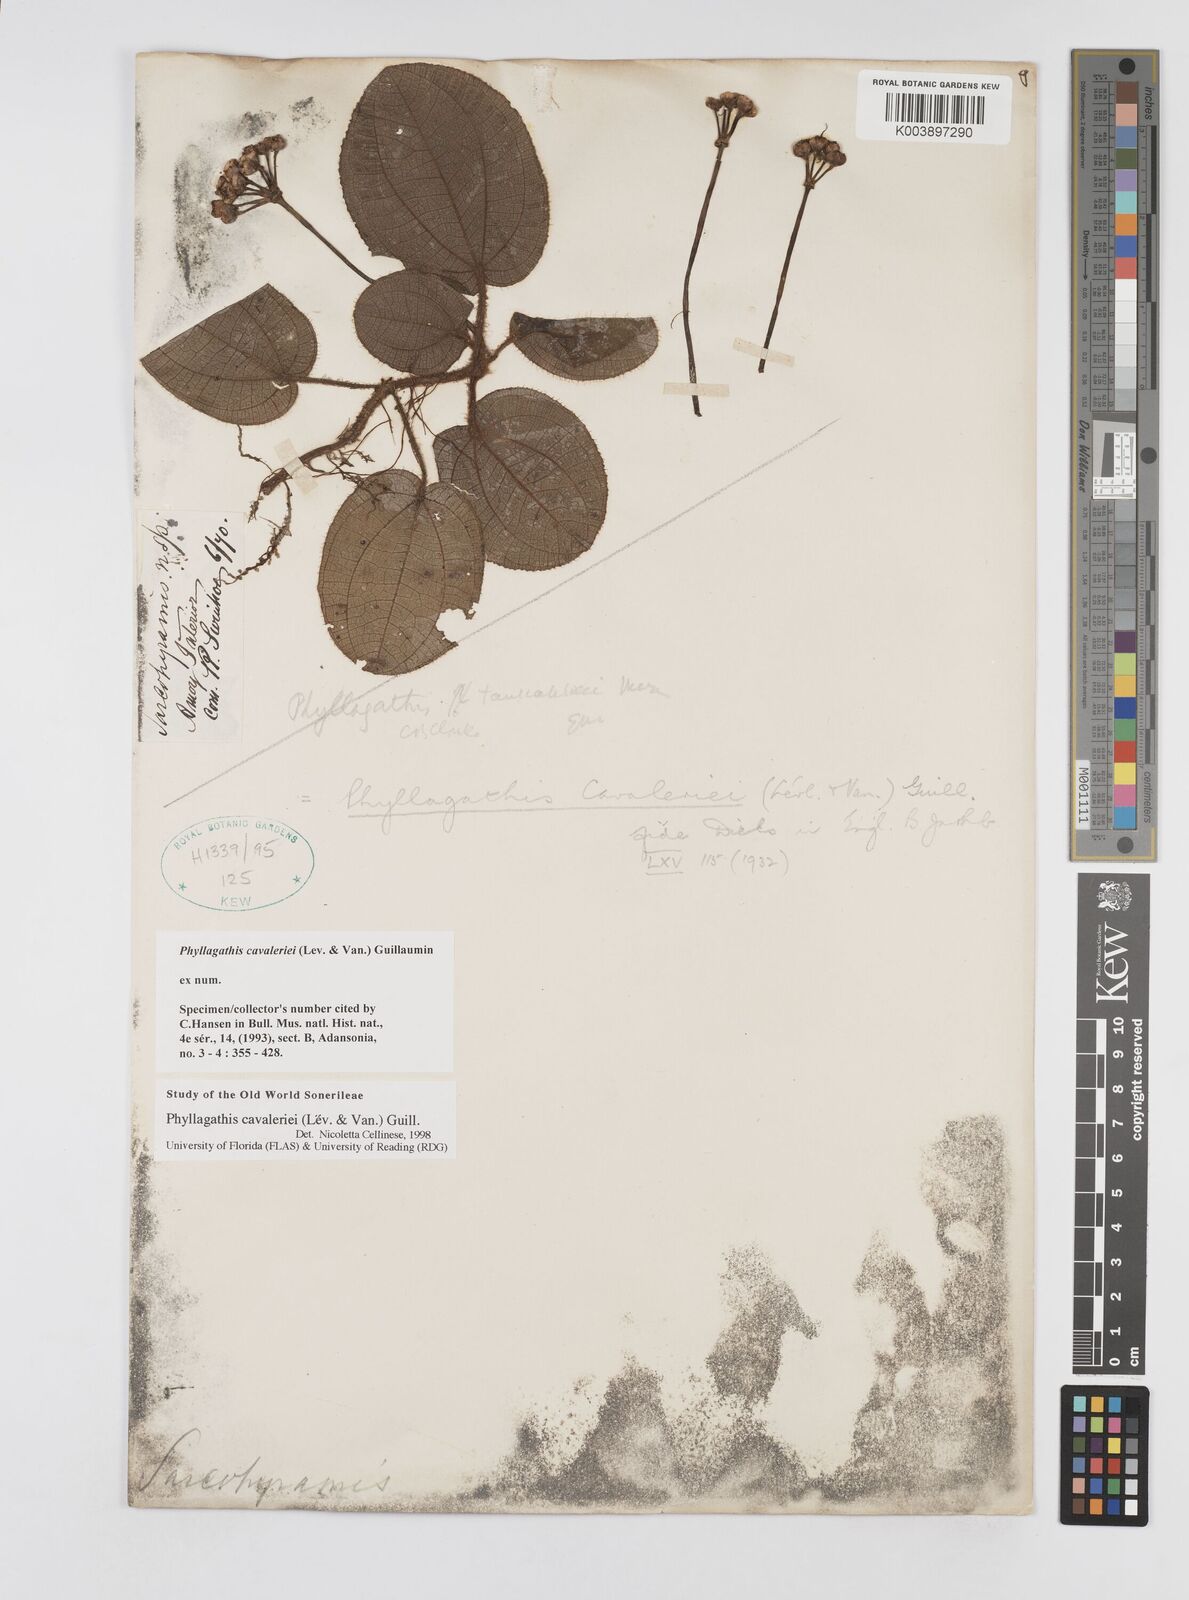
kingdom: Plantae
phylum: Tracheophyta
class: Magnoliopsida
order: Myrtales
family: Melastomataceae
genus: Phyllagathis
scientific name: Phyllagathis cavaleriei
